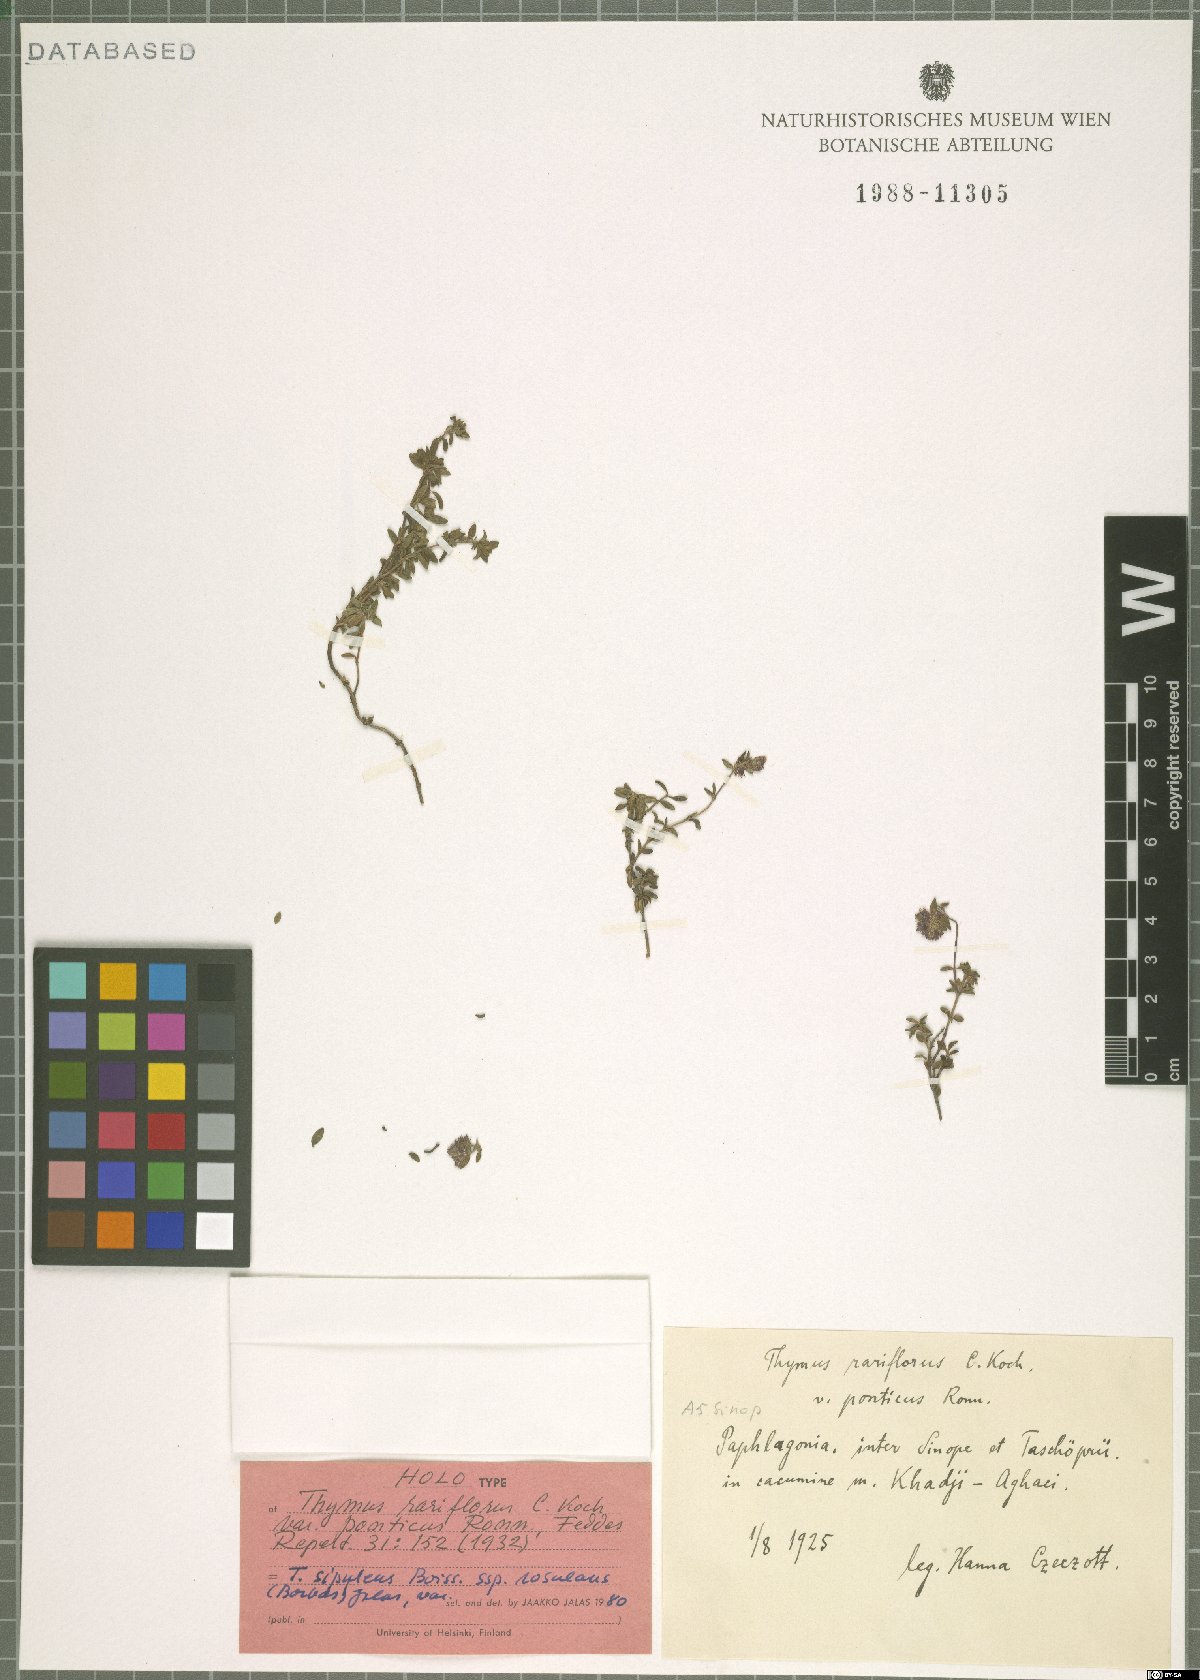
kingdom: Plantae
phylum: Tracheophyta
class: Magnoliopsida
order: Lamiales
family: Lamiaceae
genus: Thymus
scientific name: Thymus sipyleus
